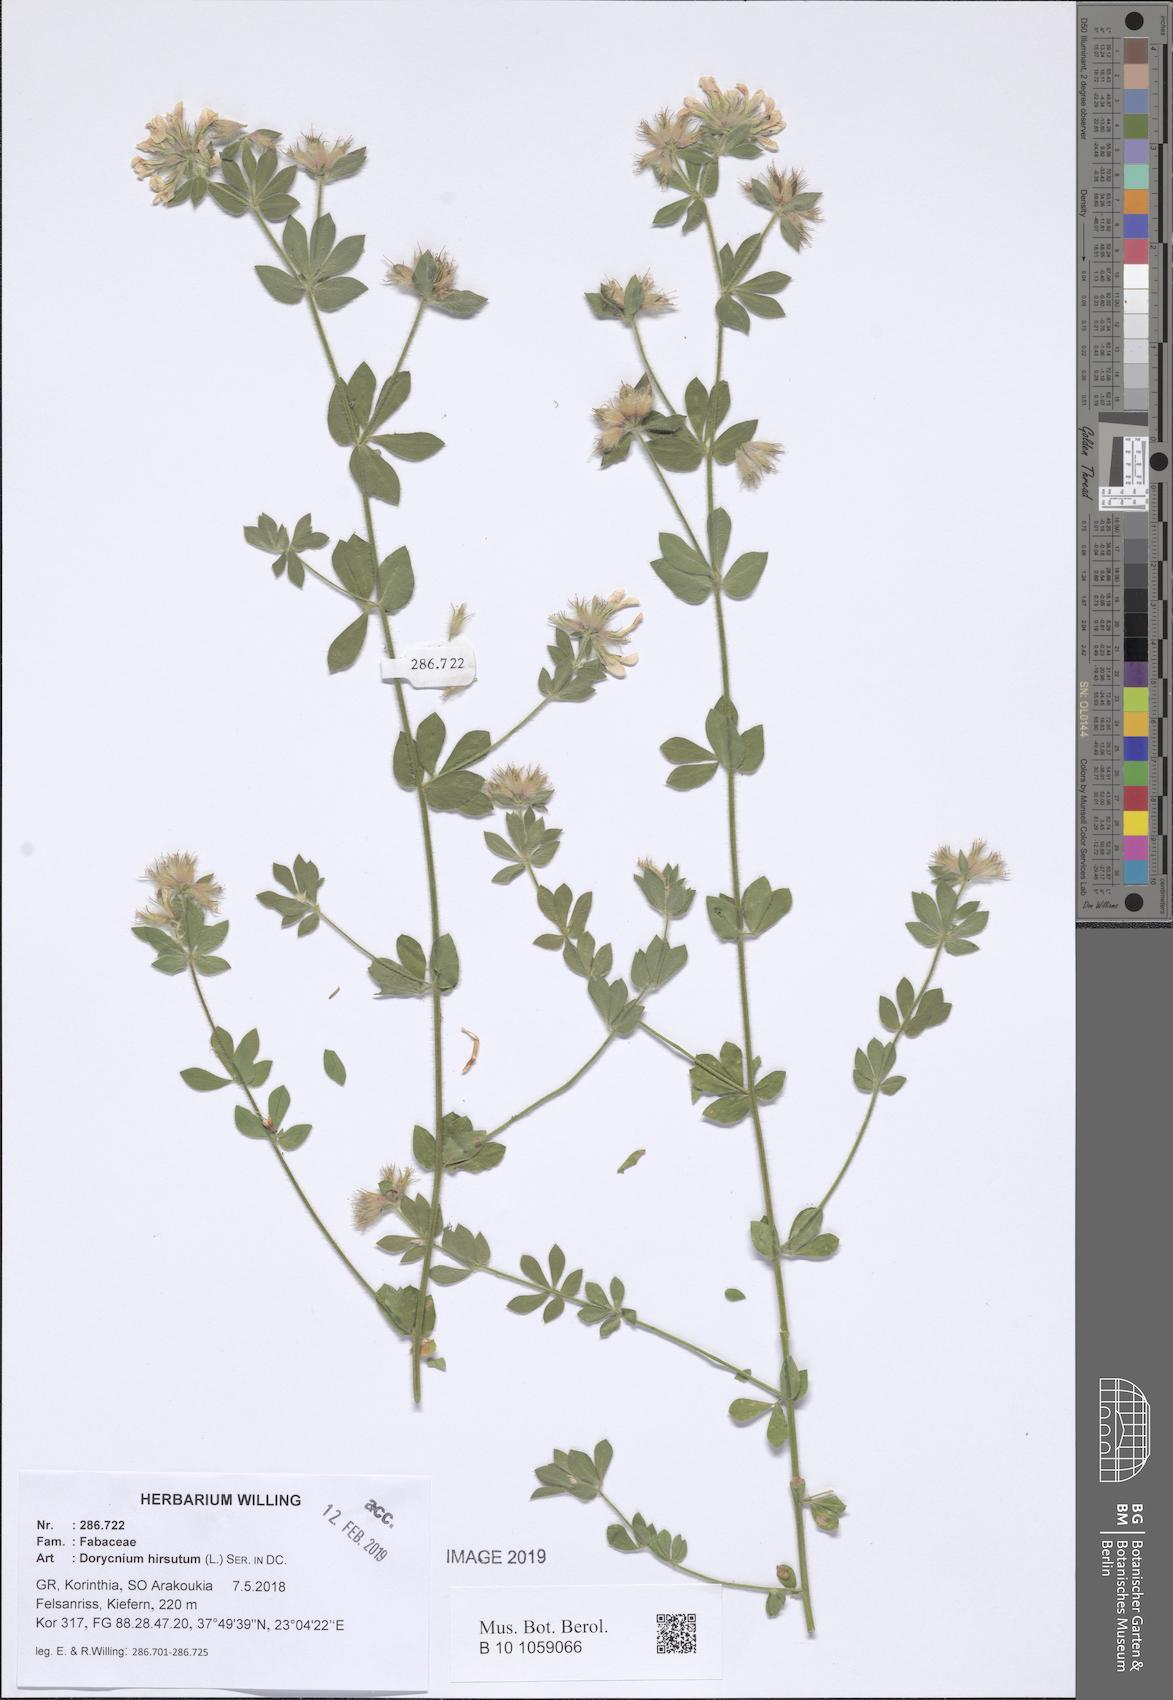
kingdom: Plantae
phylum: Tracheophyta
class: Magnoliopsida
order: Fabales
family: Fabaceae
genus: Lotus
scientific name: Lotus hirsutus
